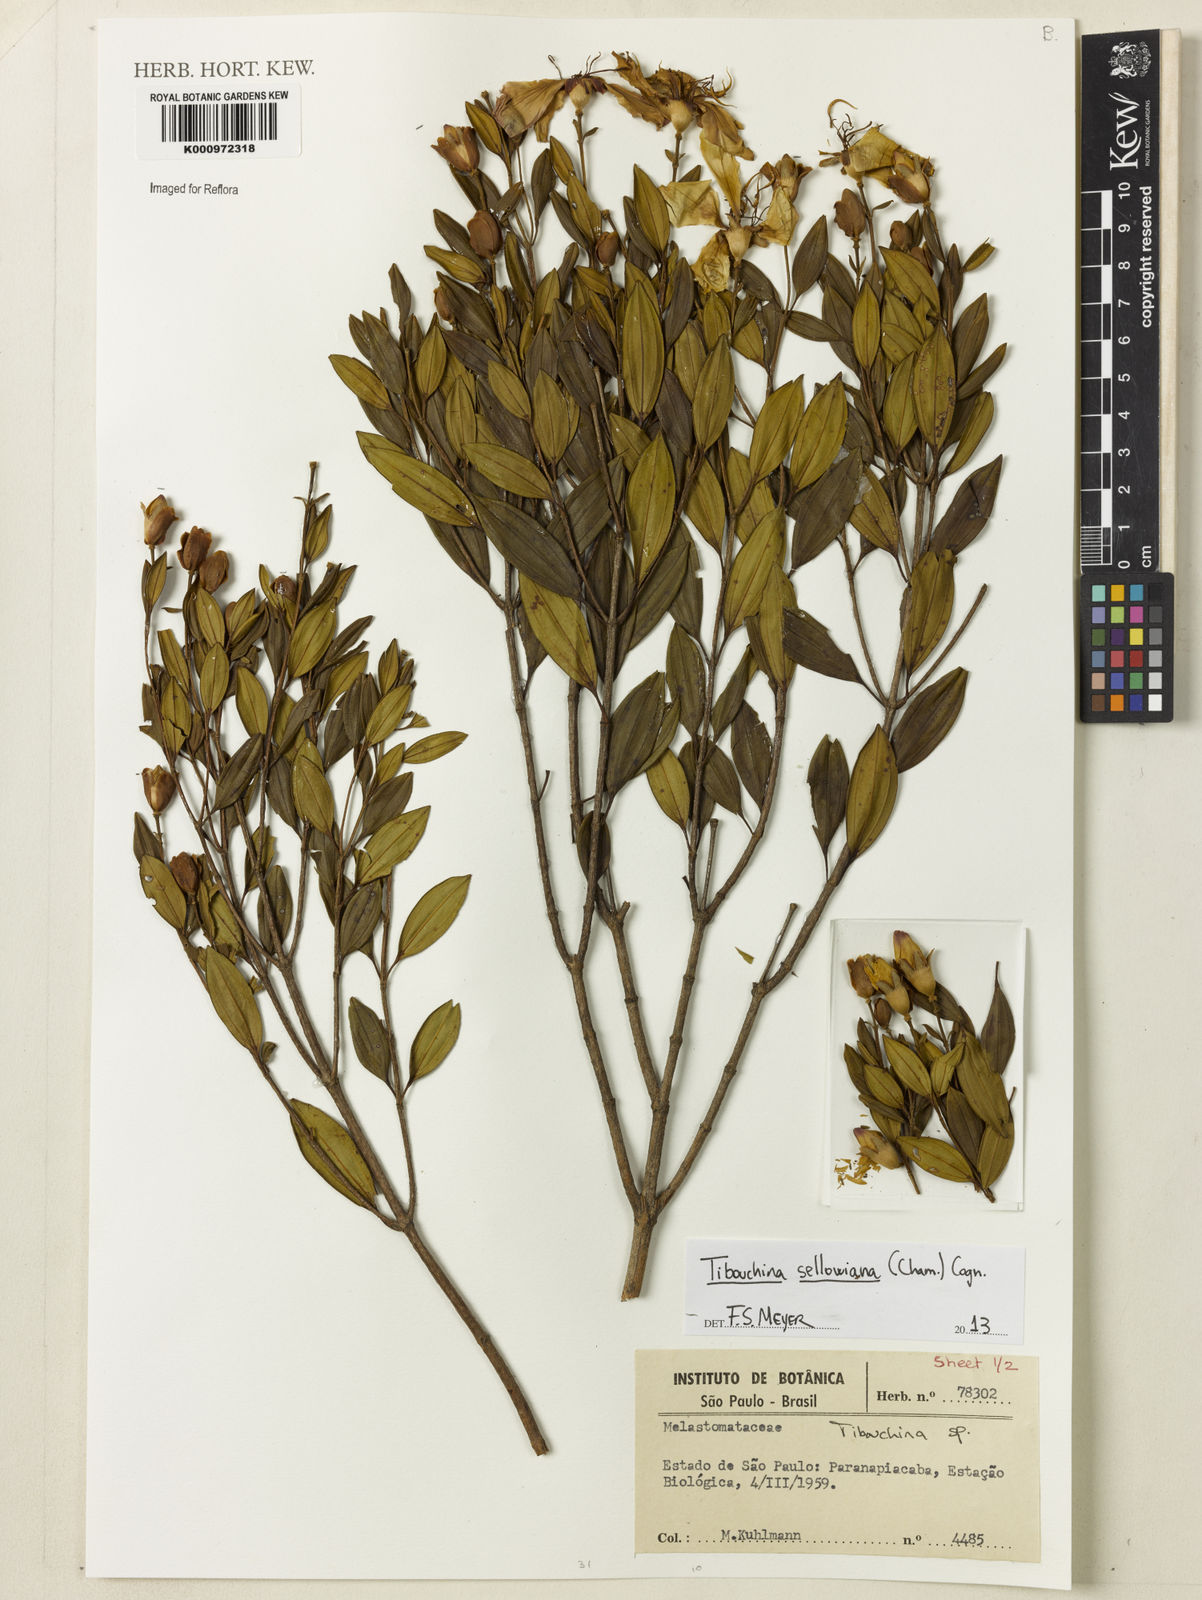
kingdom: Plantae
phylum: Tracheophyta
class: Magnoliopsida
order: Myrtales
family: Melastomataceae
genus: Pleroma
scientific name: Pleroma sellowianum
